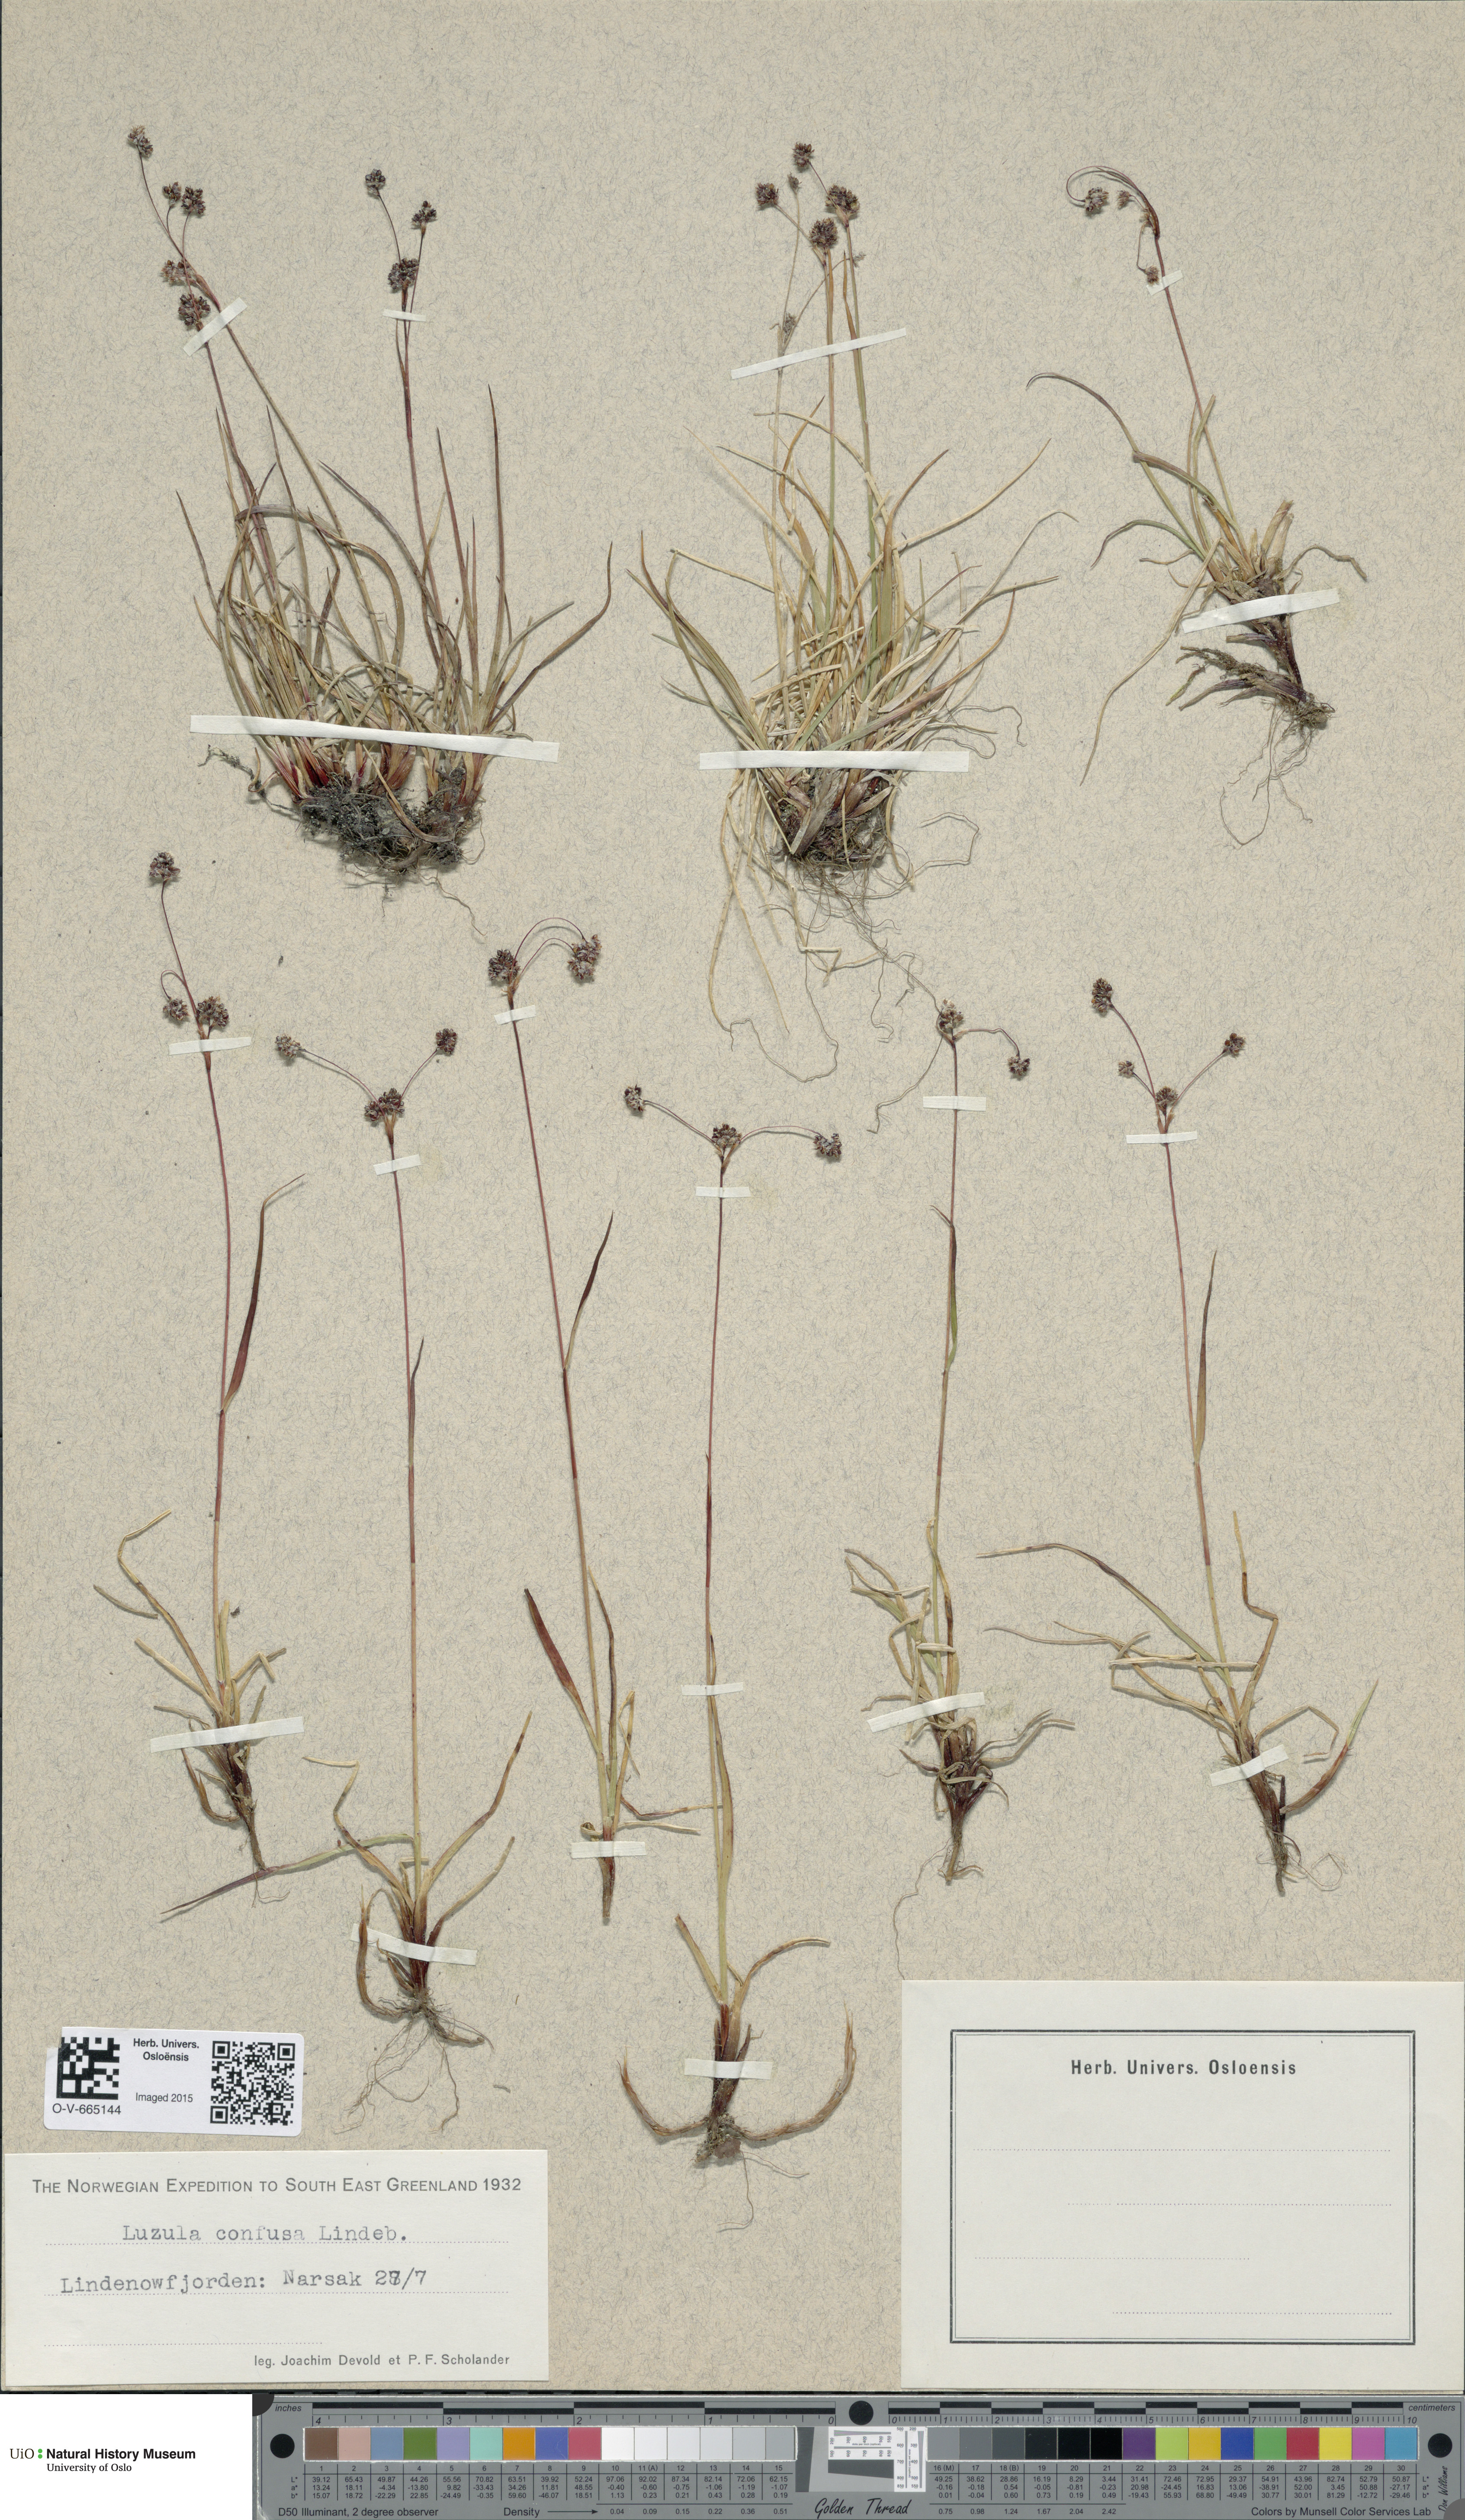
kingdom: Plantae
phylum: Tracheophyta
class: Liliopsida
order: Poales
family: Juncaceae
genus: Luzula
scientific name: Luzula confusa
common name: Northern wood rush
